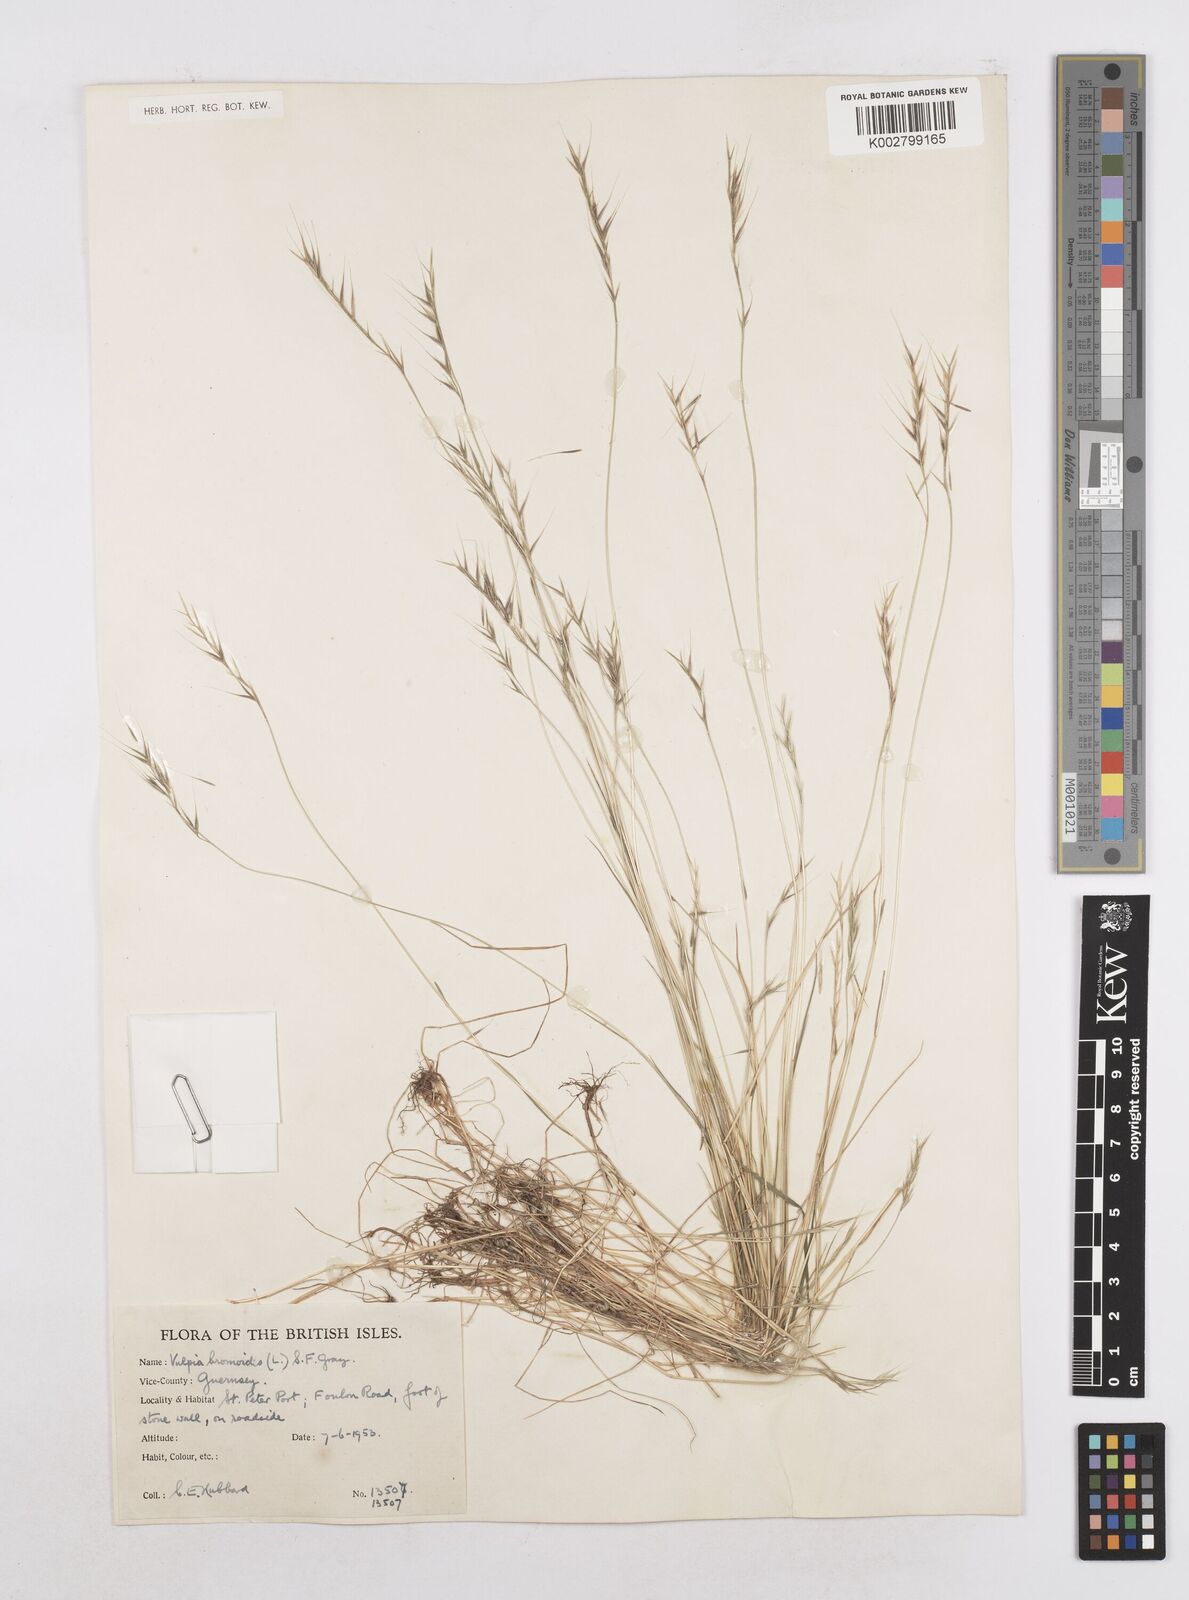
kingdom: Plantae
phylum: Tracheophyta
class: Liliopsida
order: Poales
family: Poaceae
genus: Festuca
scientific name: Festuca bromoides
